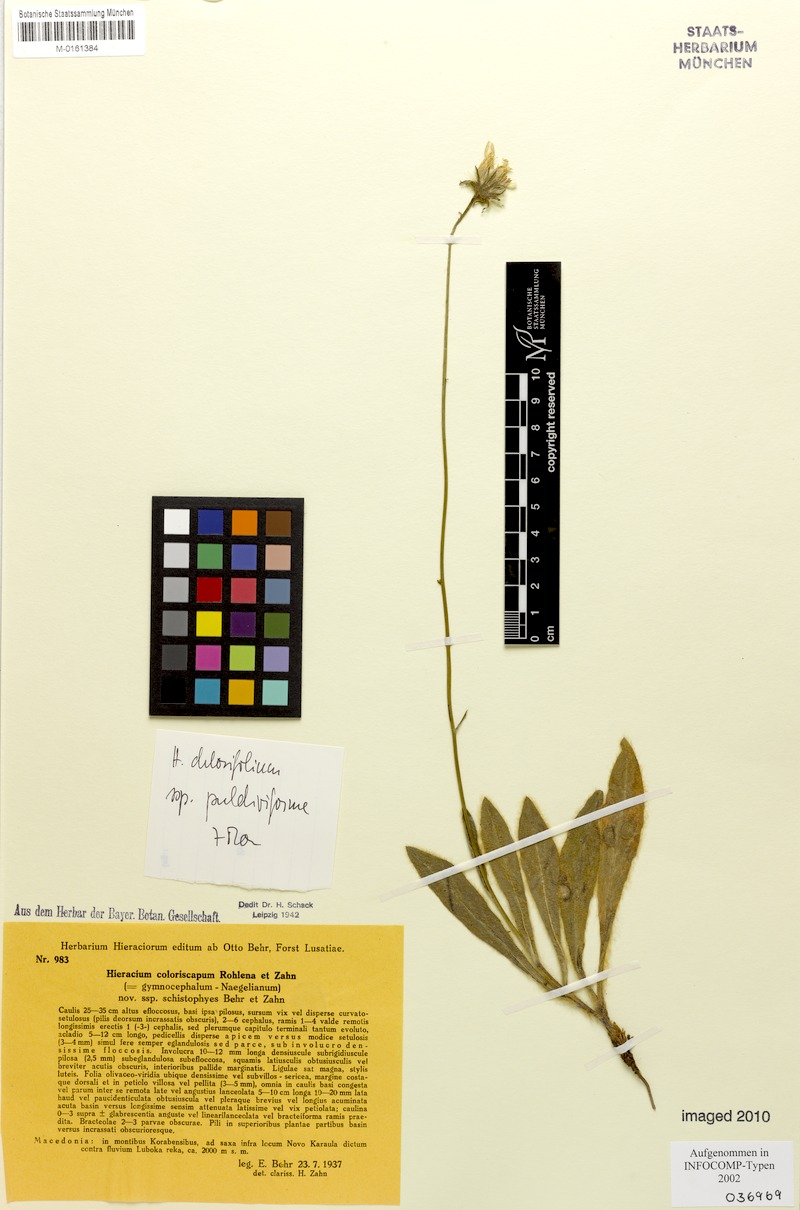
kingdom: Plantae
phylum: Tracheophyta
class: Magnoliopsida
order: Asterales
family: Asteraceae
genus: Hieracium
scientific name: Hieracium coloriscapum
